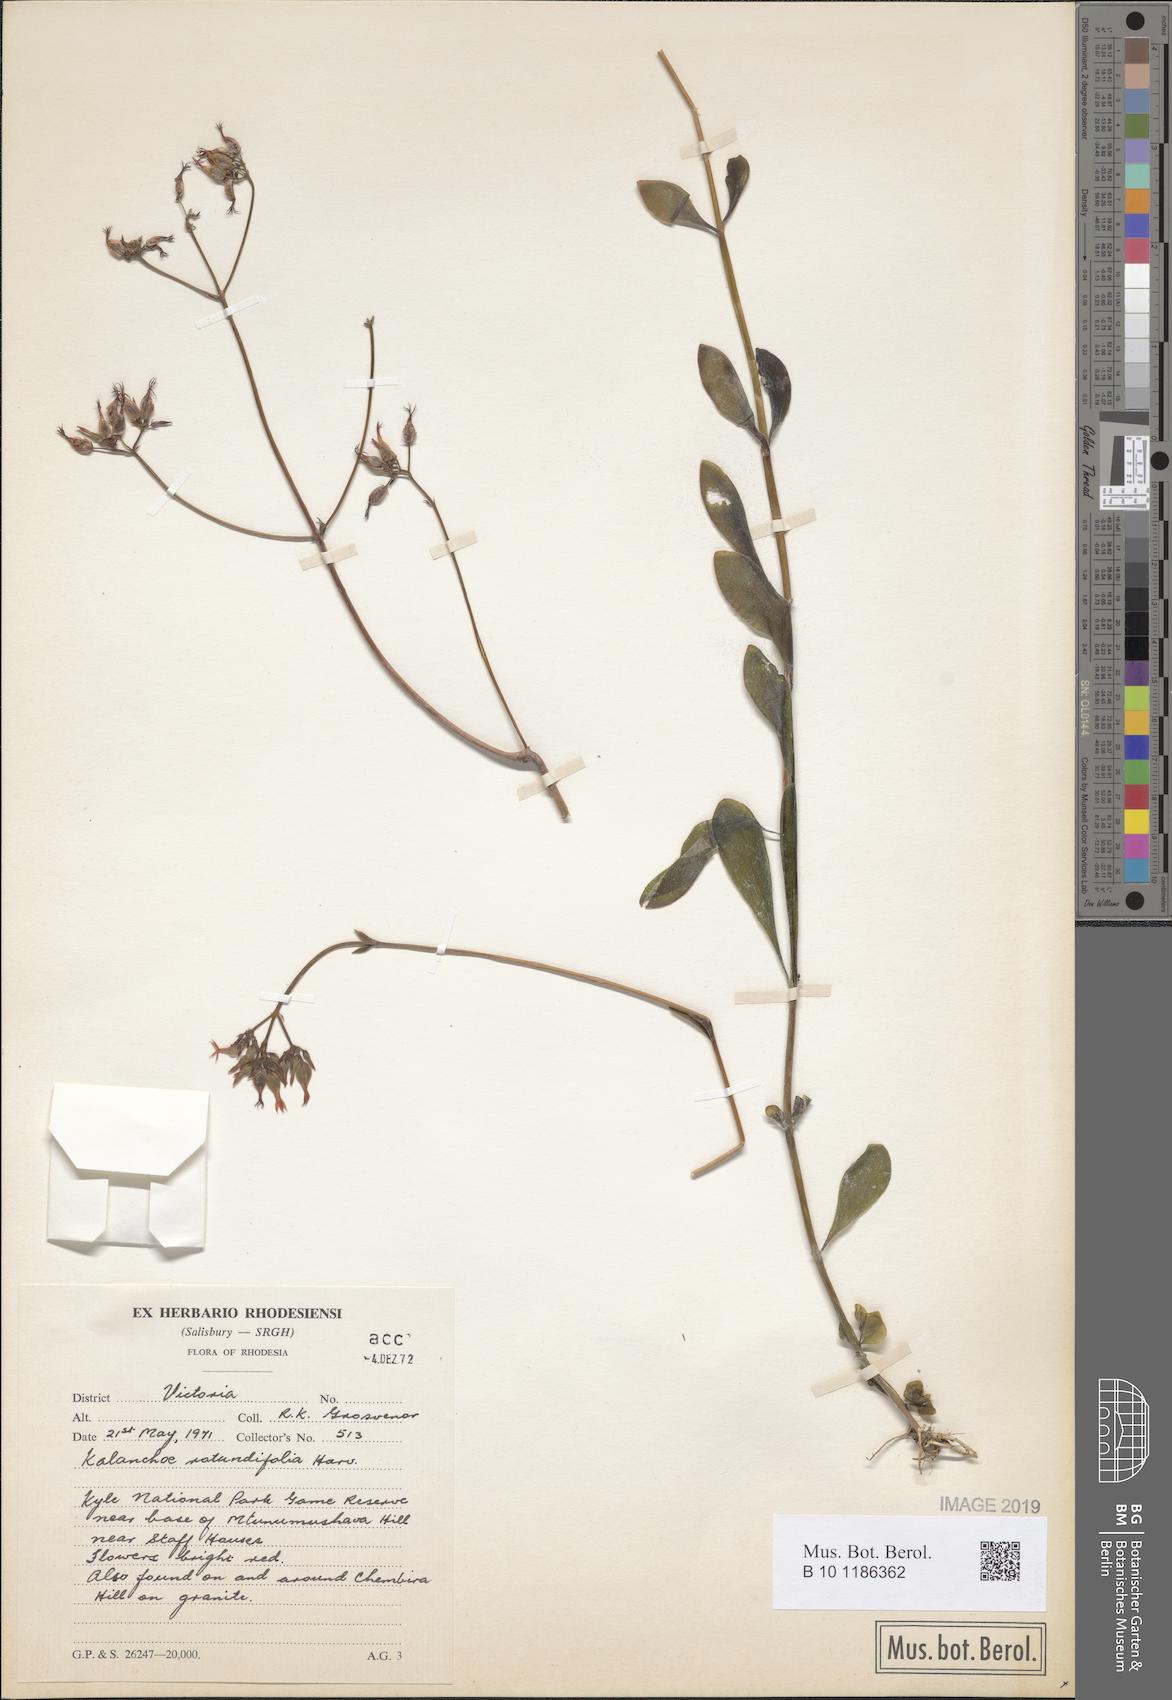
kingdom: Plantae
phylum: Tracheophyta
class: Magnoliopsida
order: Saxifragales
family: Crassulaceae
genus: Kalanchoe
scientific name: Kalanchoe rotundifolia
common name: Common kalanchoe
